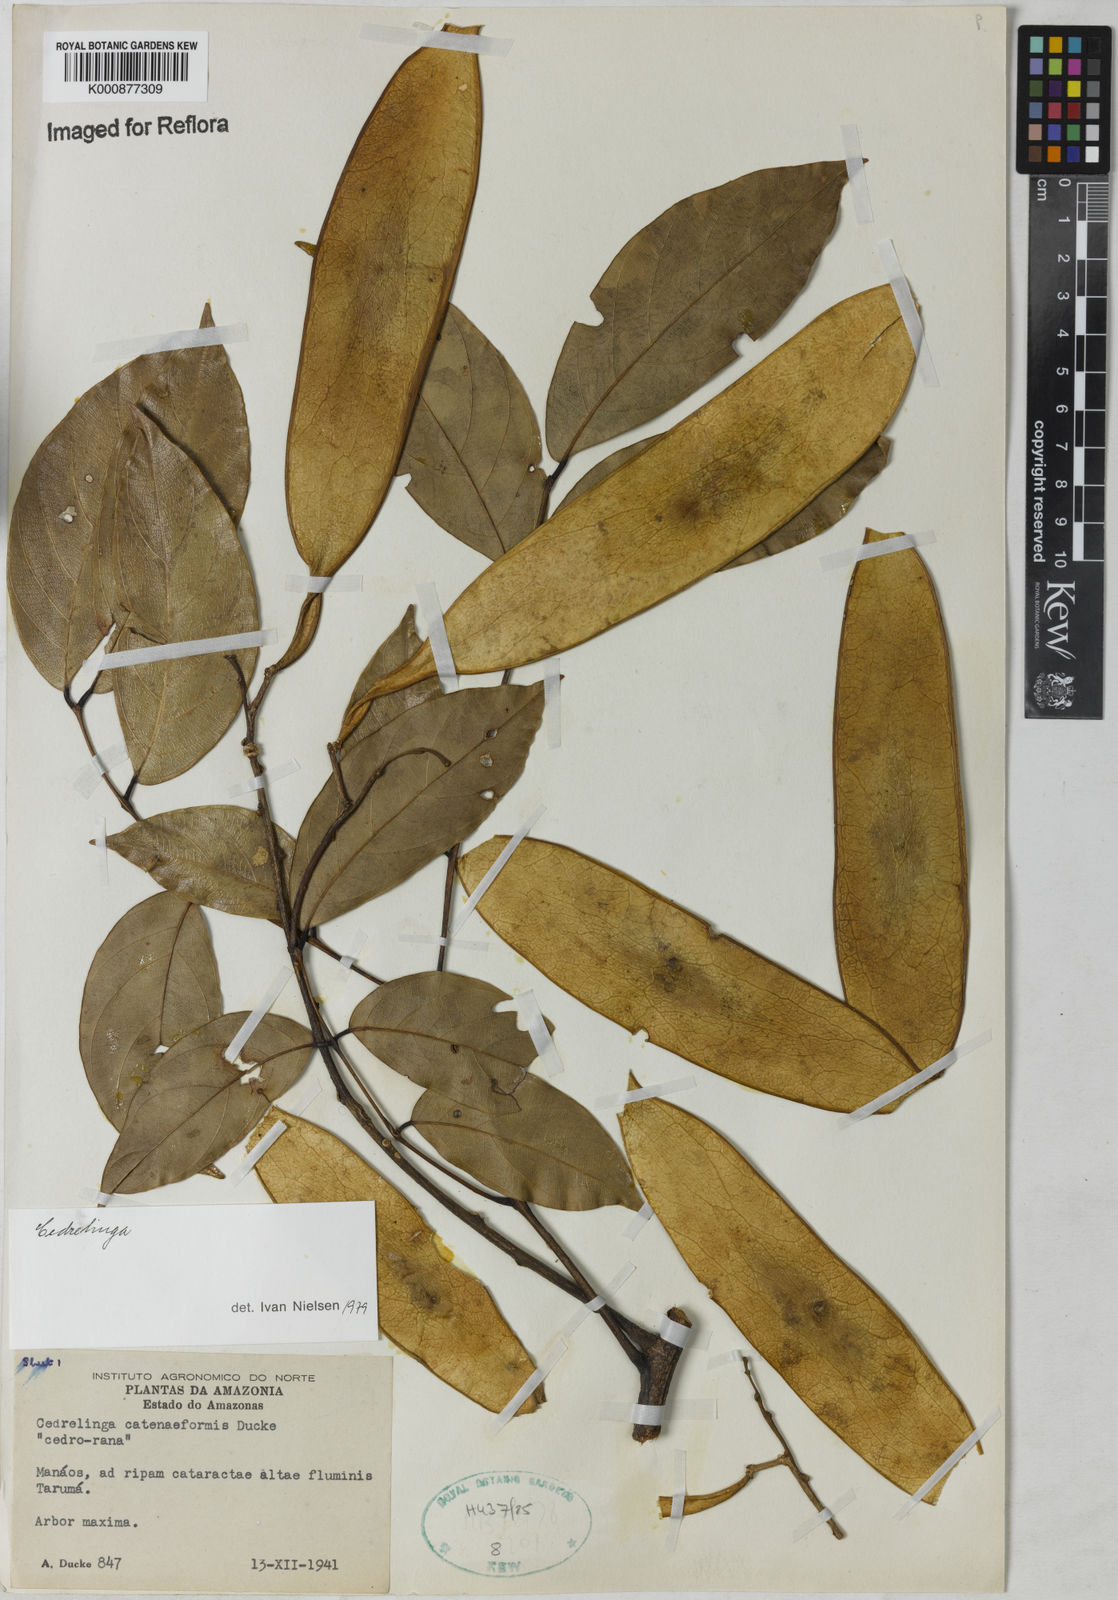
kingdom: Plantae
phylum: Tracheophyta
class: Magnoliopsida
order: Fabales
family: Fabaceae
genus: Cedrelinga
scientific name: Cedrelinga cateniformis
